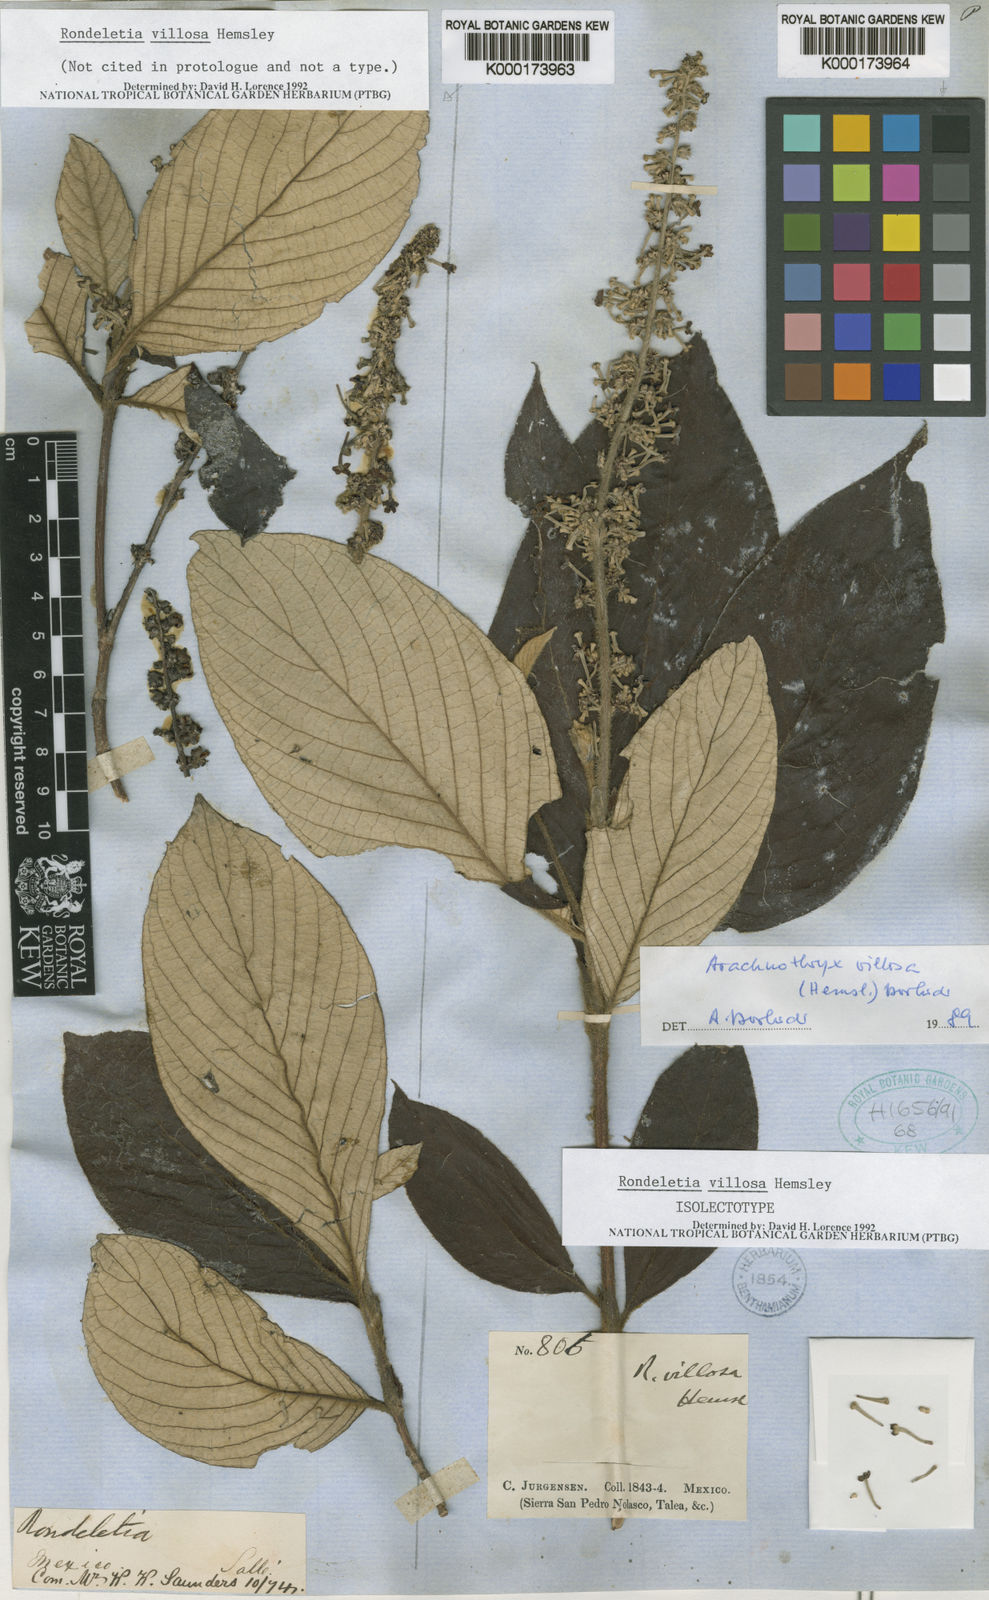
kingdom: Plantae
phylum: Tracheophyta
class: Magnoliopsida
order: Gentianales
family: Rubiaceae
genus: Arachnothryx
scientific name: Arachnothryx villosa
